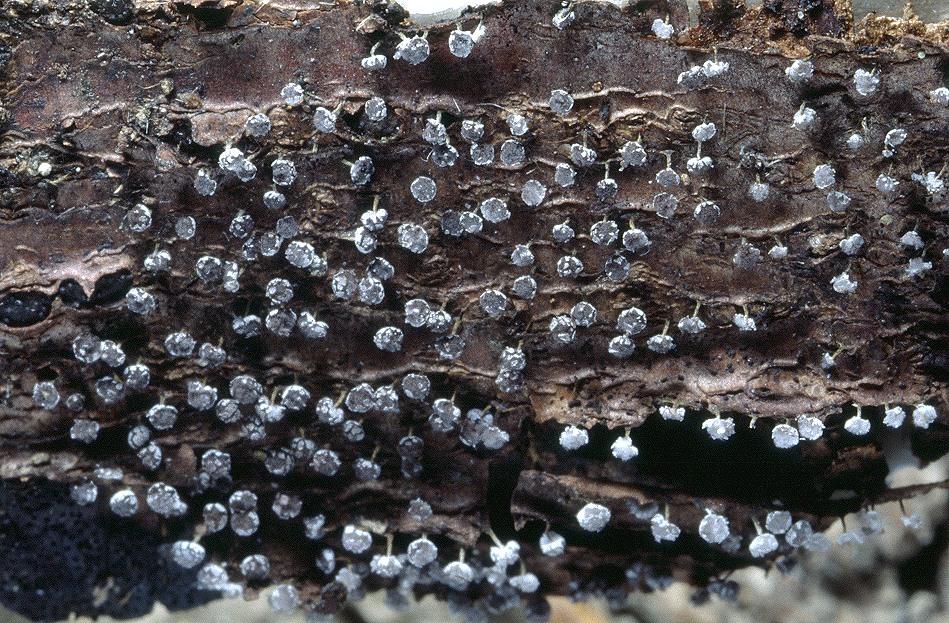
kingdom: Protozoa
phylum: Mycetozoa
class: Myxomycetes
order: Physarales
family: Physaraceae
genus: Physarum
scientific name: Physarum leucophaeum
